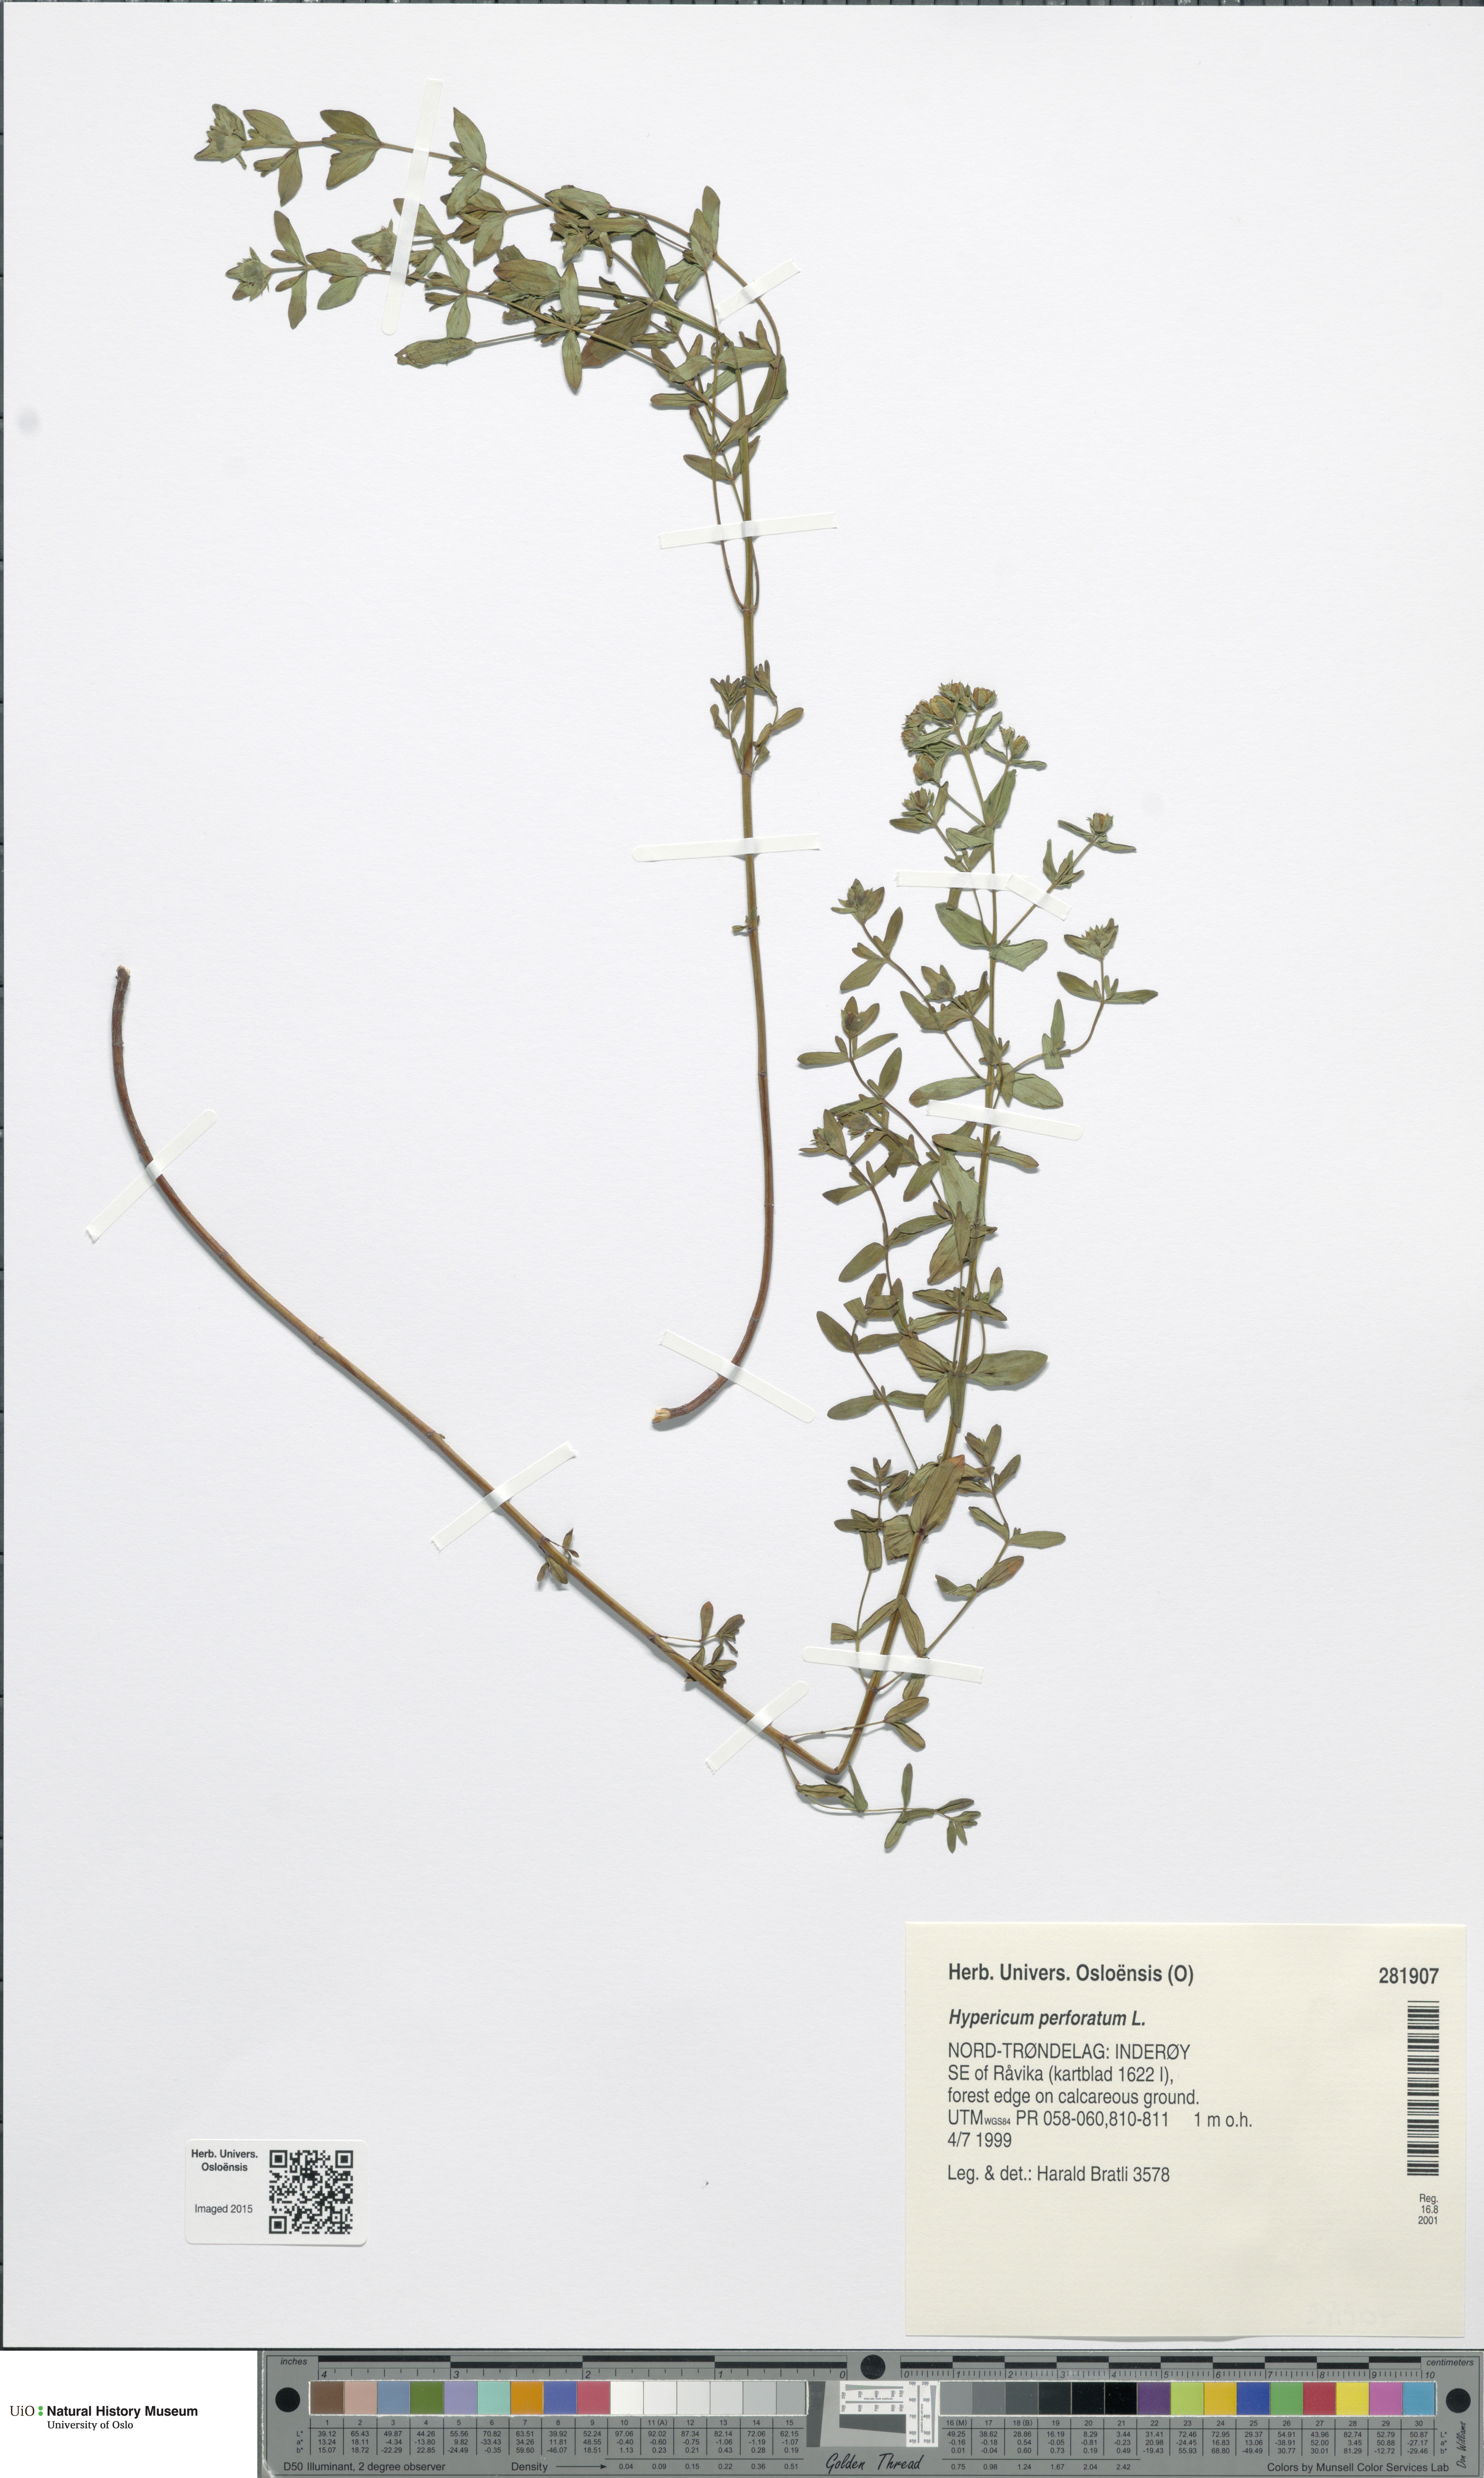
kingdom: Plantae
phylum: Tracheophyta
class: Magnoliopsida
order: Malpighiales
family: Hypericaceae
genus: Hypericum
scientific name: Hypericum perforatum
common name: Common st. johnswort
